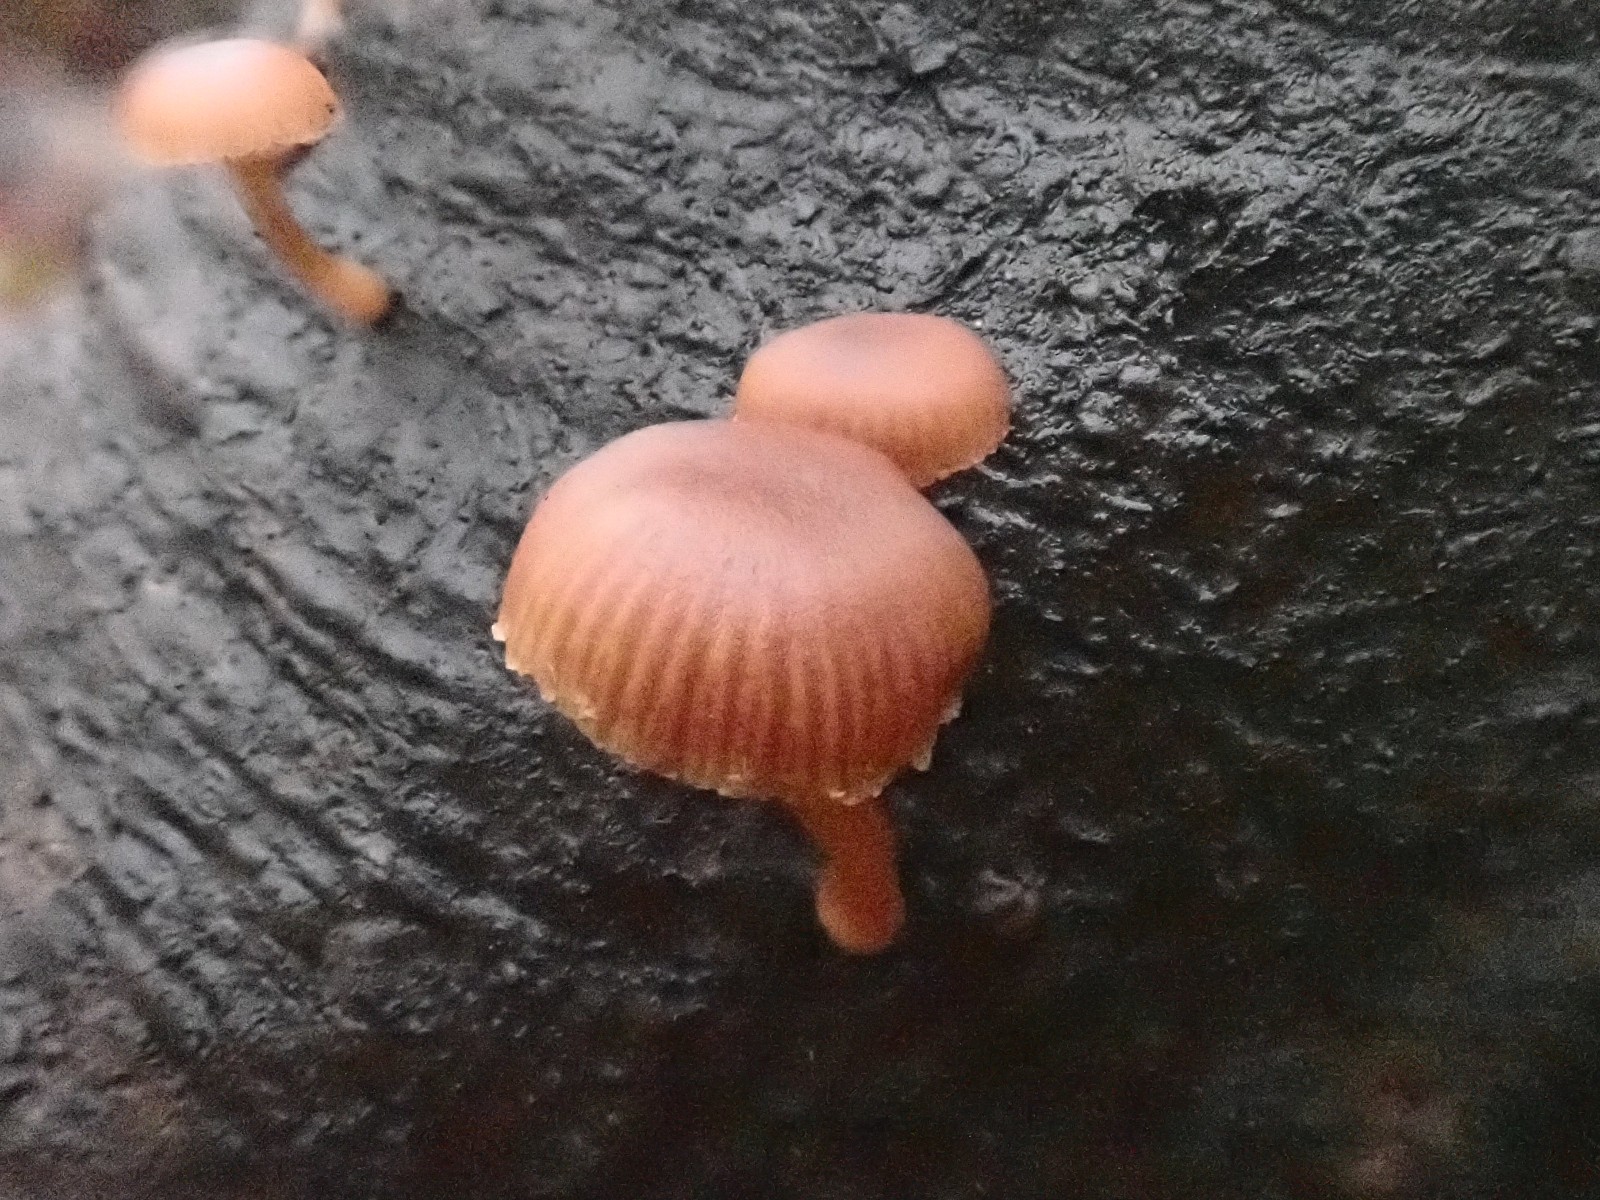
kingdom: Fungi
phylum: Basidiomycota
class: Agaricomycetes
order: Agaricales
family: Tubariaceae
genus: Tubaria
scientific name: Tubaria furfuracea
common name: kliddet fnughat
